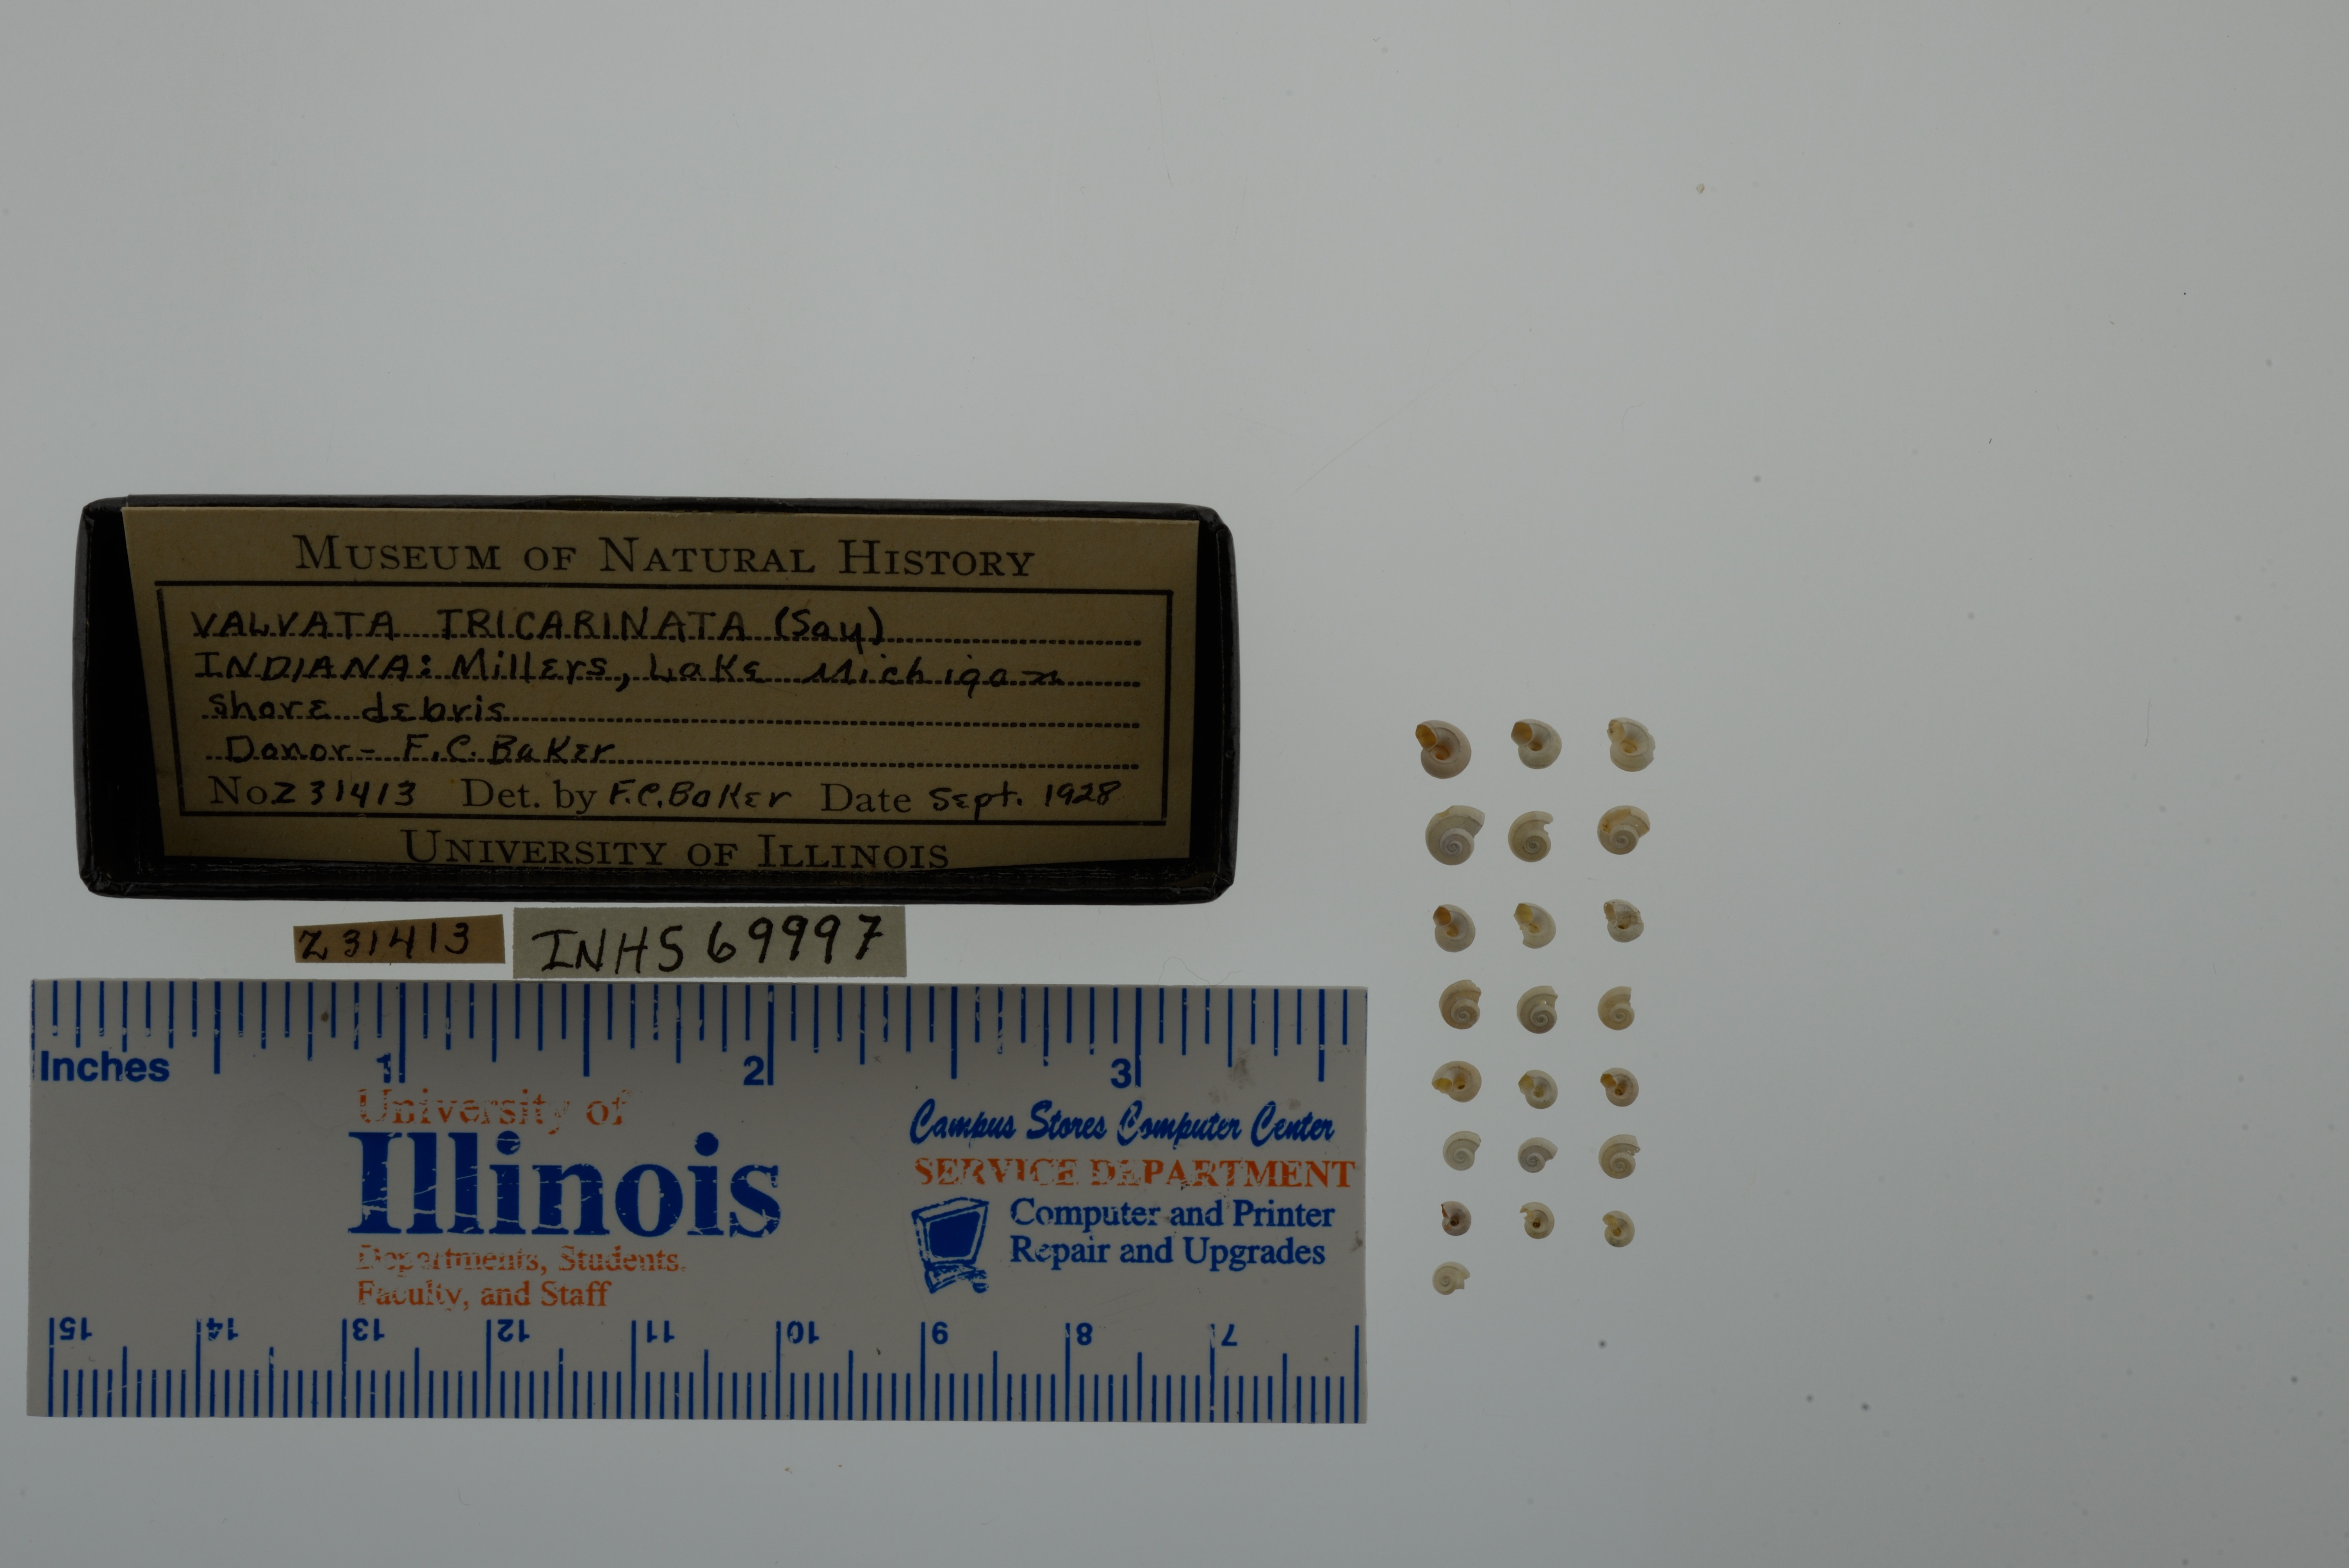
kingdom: Animalia
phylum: Mollusca
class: Gastropoda
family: Valvatidae
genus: Valvata
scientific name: Valvata tricarinata
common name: Three-ridge valvata
